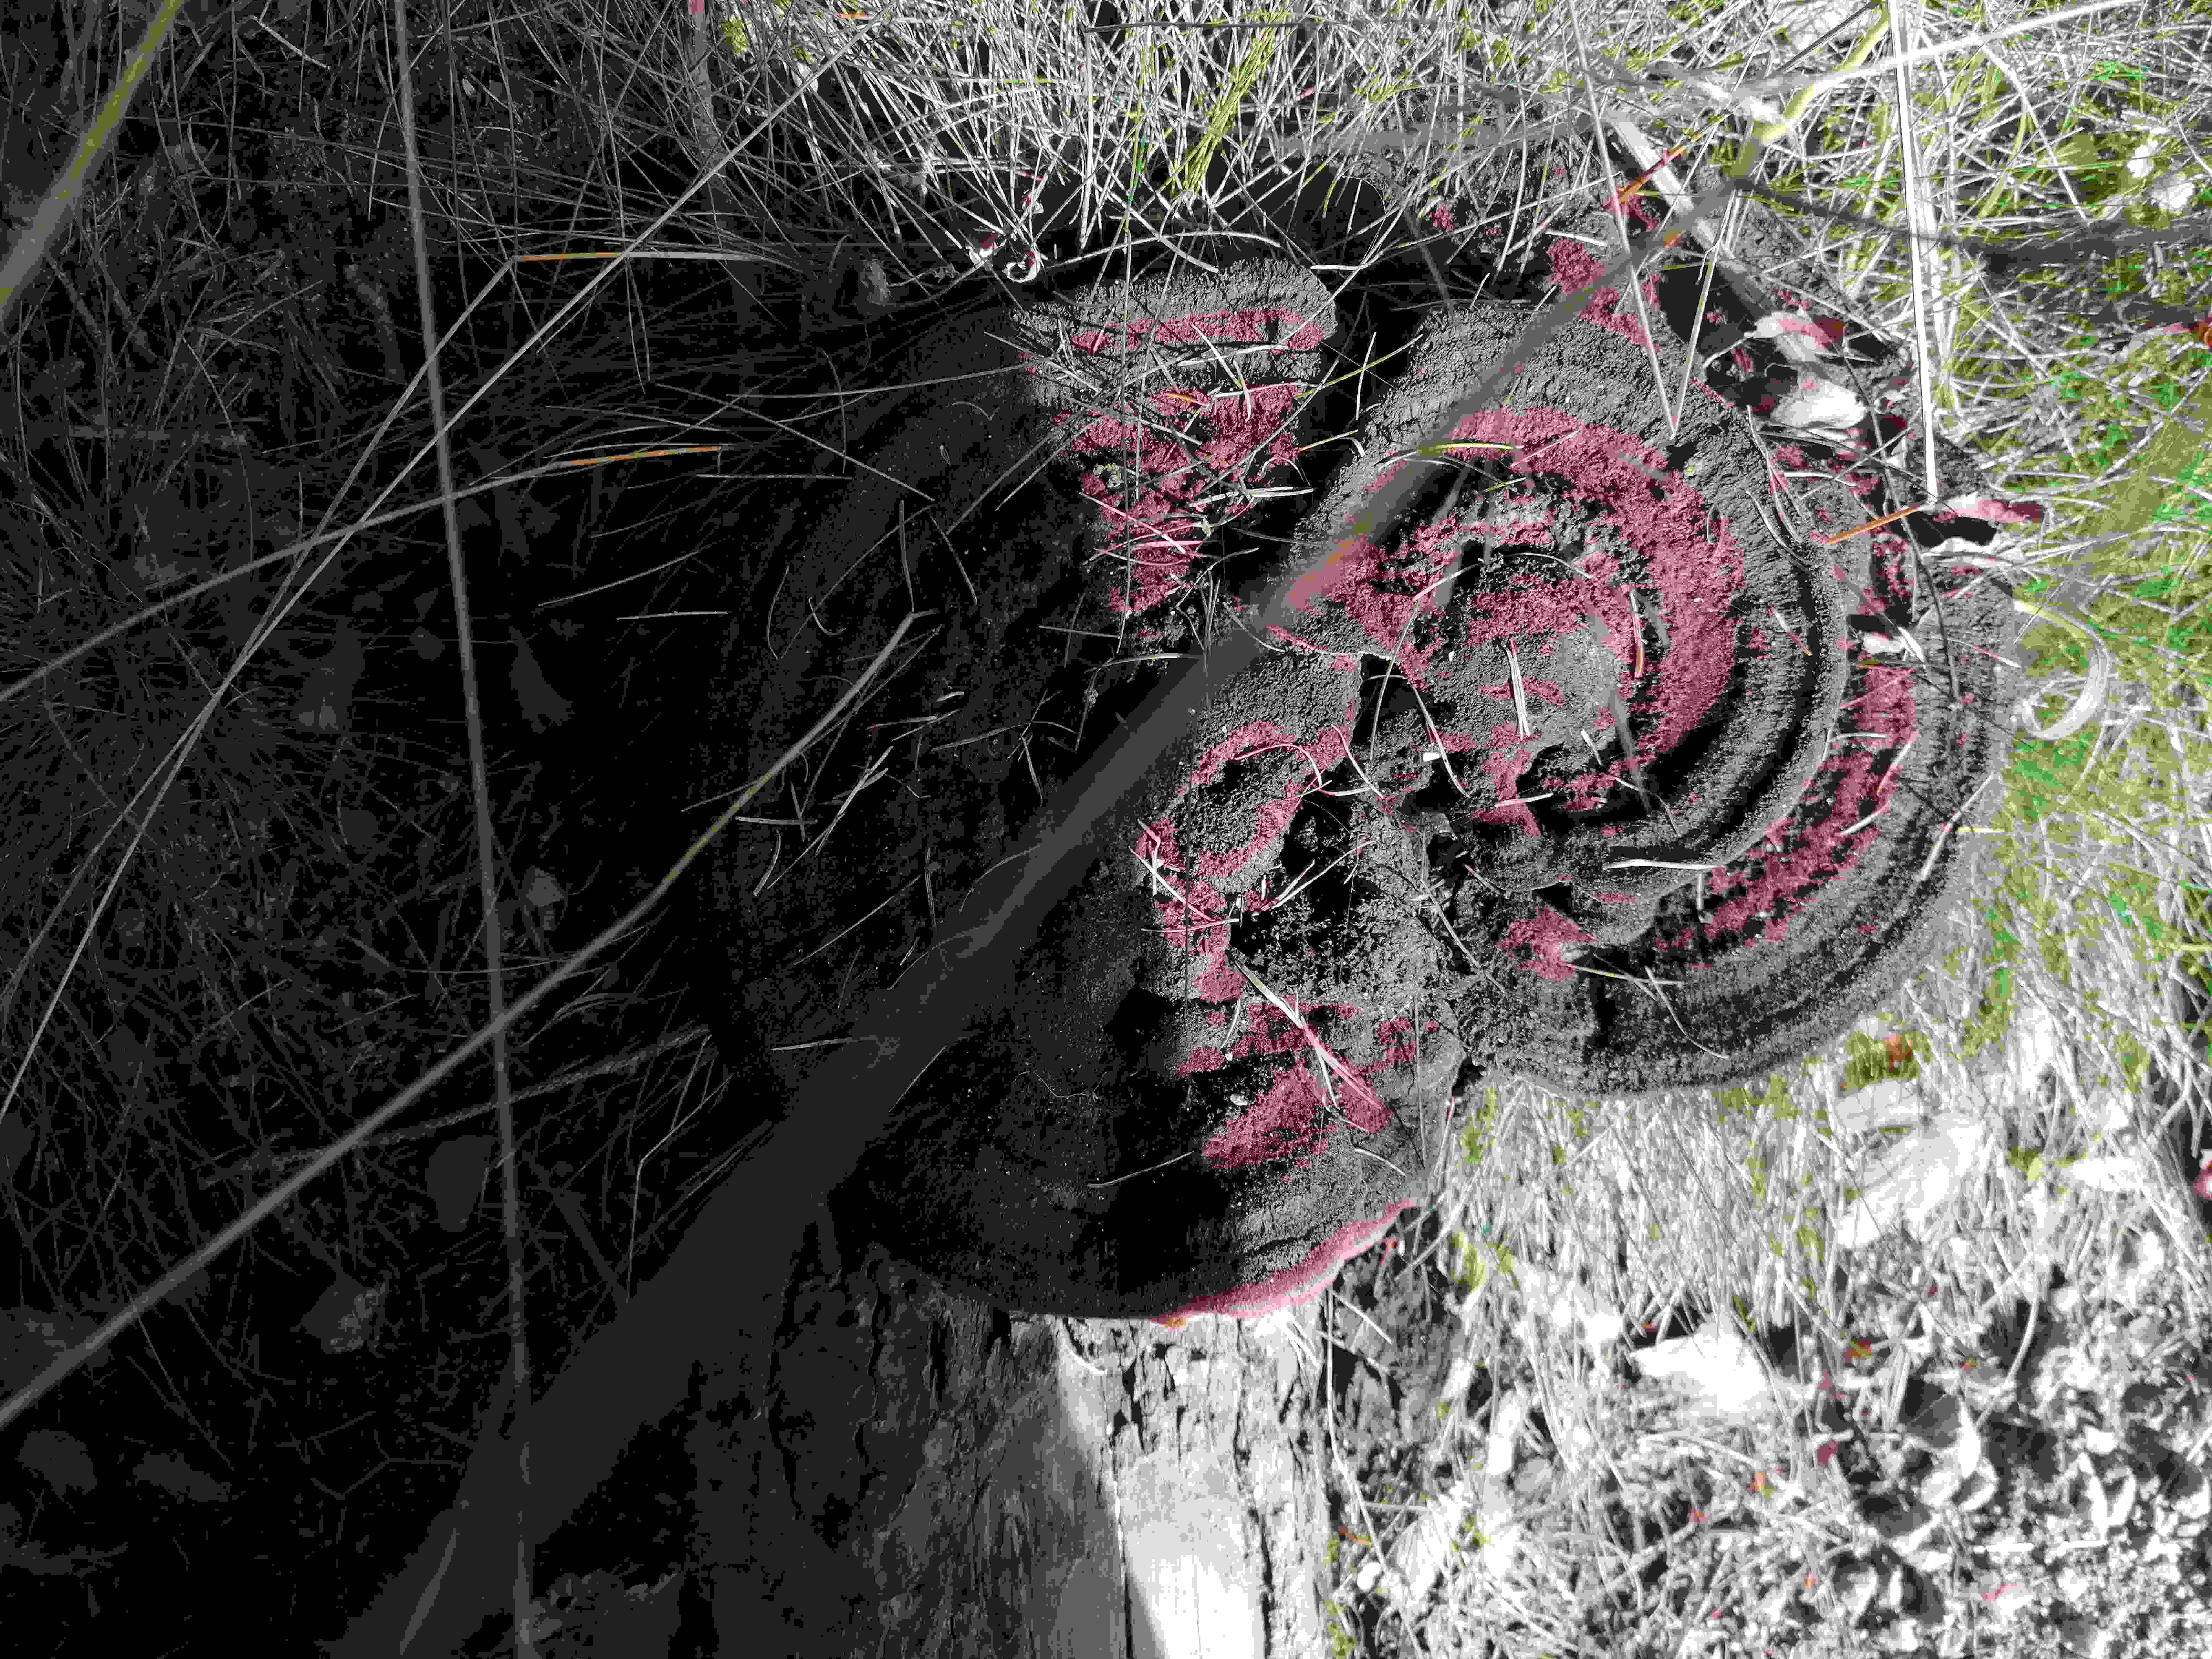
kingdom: Fungi
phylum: Basidiomycota
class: Agaricomycetes
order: Polyporales
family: Laetiporaceae
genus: Phaeolus
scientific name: Phaeolus schweinitzii
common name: brunporesvamp
